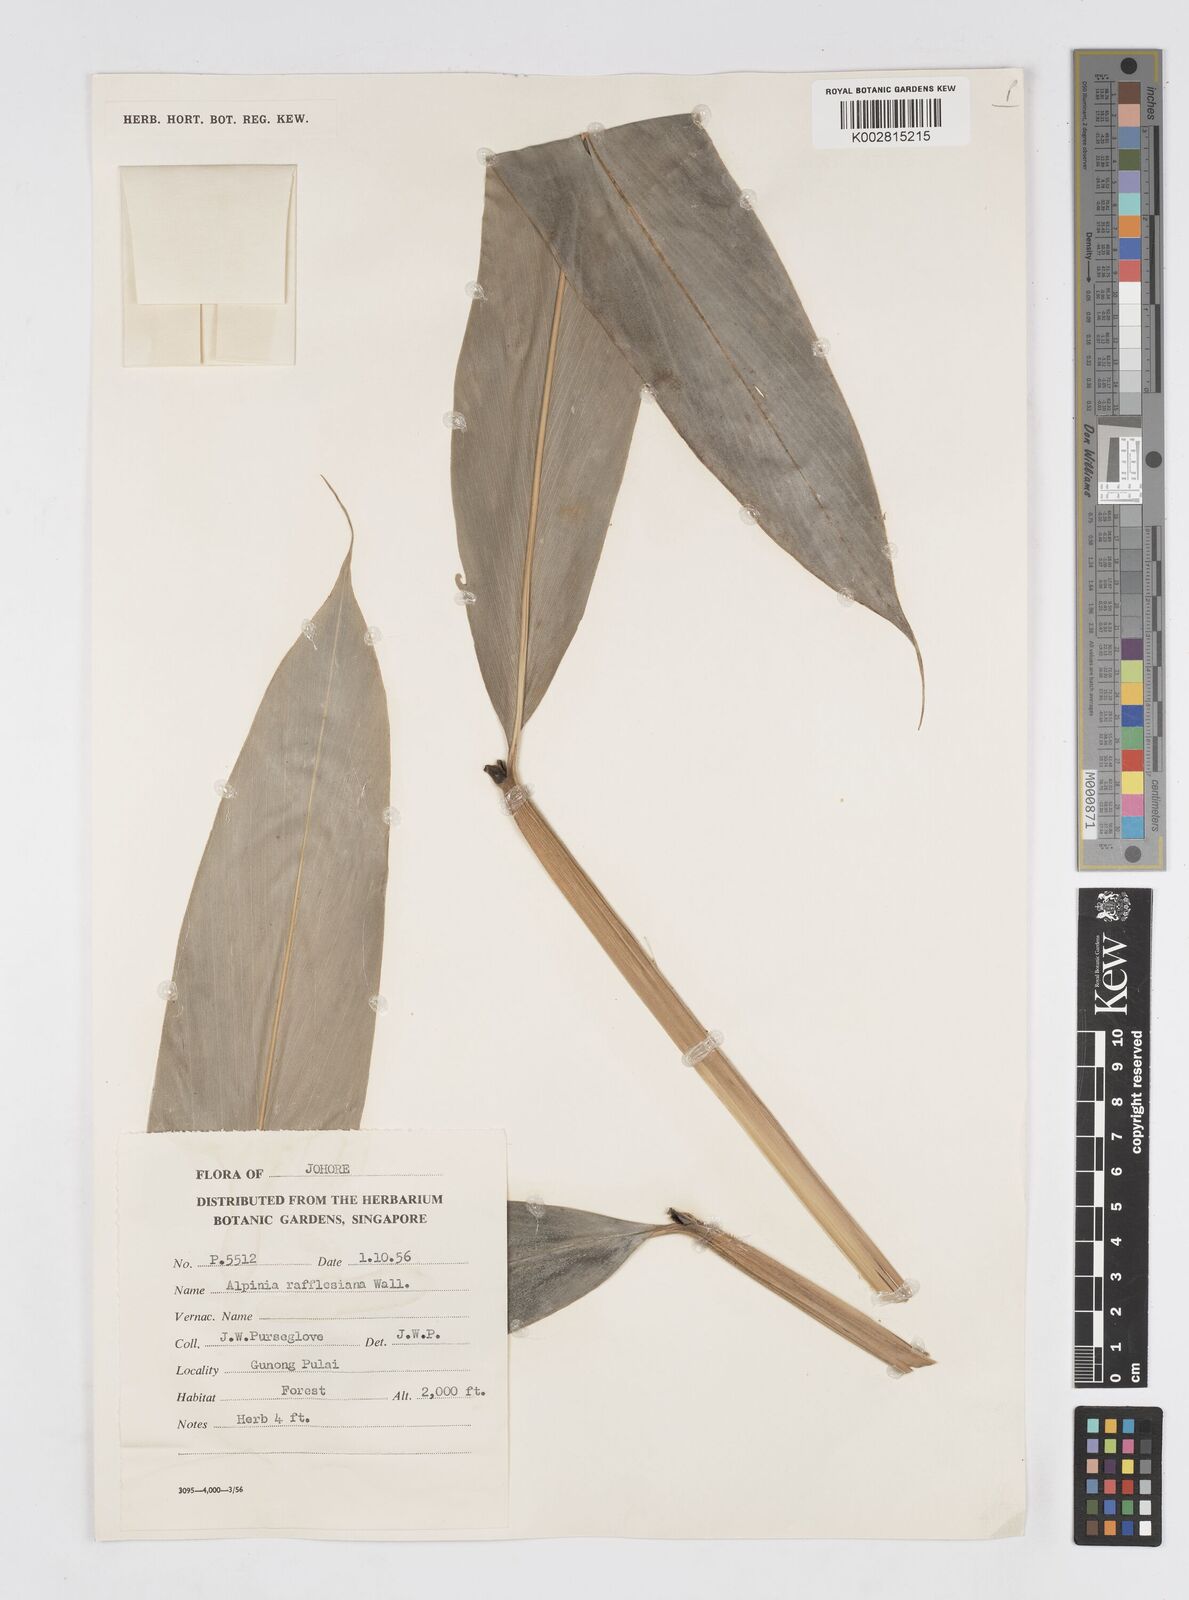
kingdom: Plantae
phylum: Tracheophyta
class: Liliopsida
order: Zingiberales
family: Zingiberaceae
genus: Alpinia
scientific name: Alpinia rafflesiana
